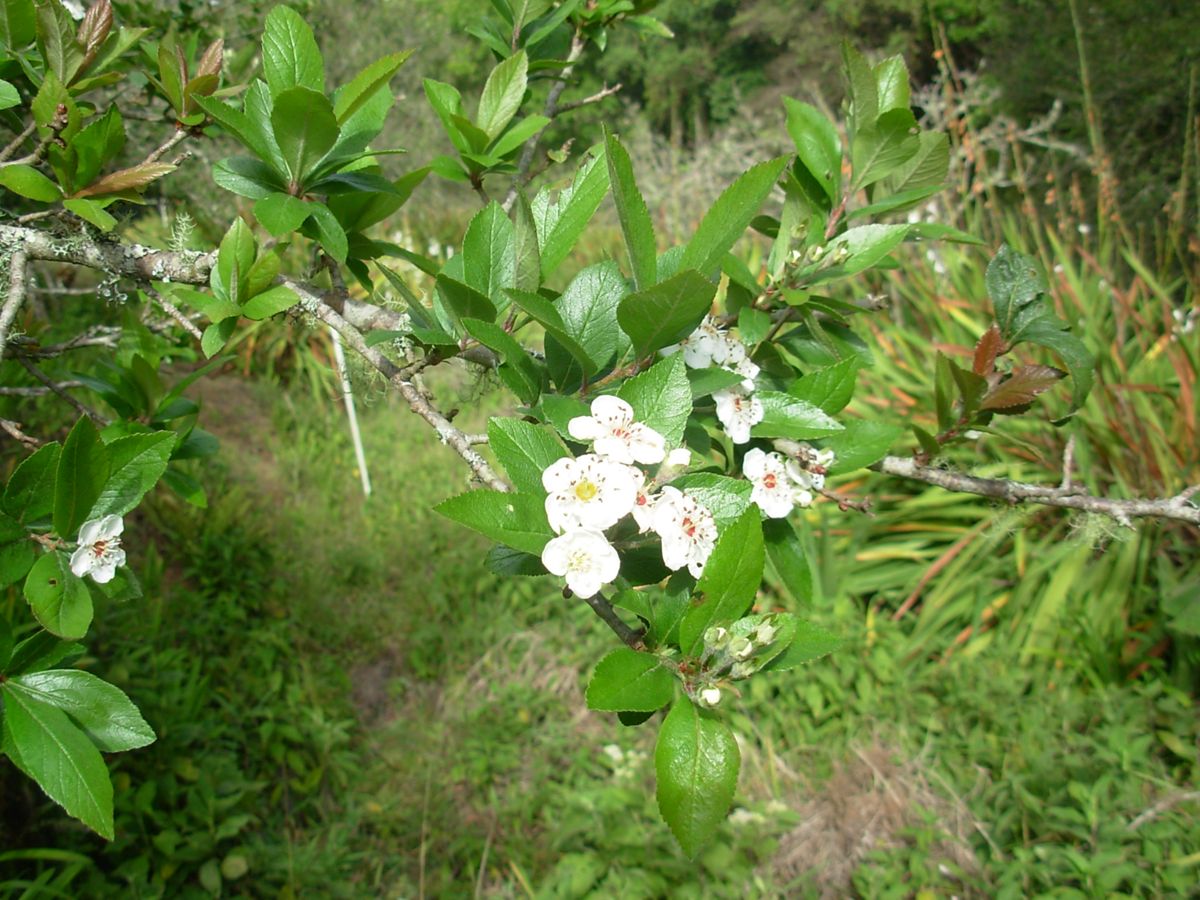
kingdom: Plantae
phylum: Tracheophyta
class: Magnoliopsida
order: Rosales
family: Rosaceae
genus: Crataegus
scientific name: Crataegus mexicana
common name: Mexican hawthorn
